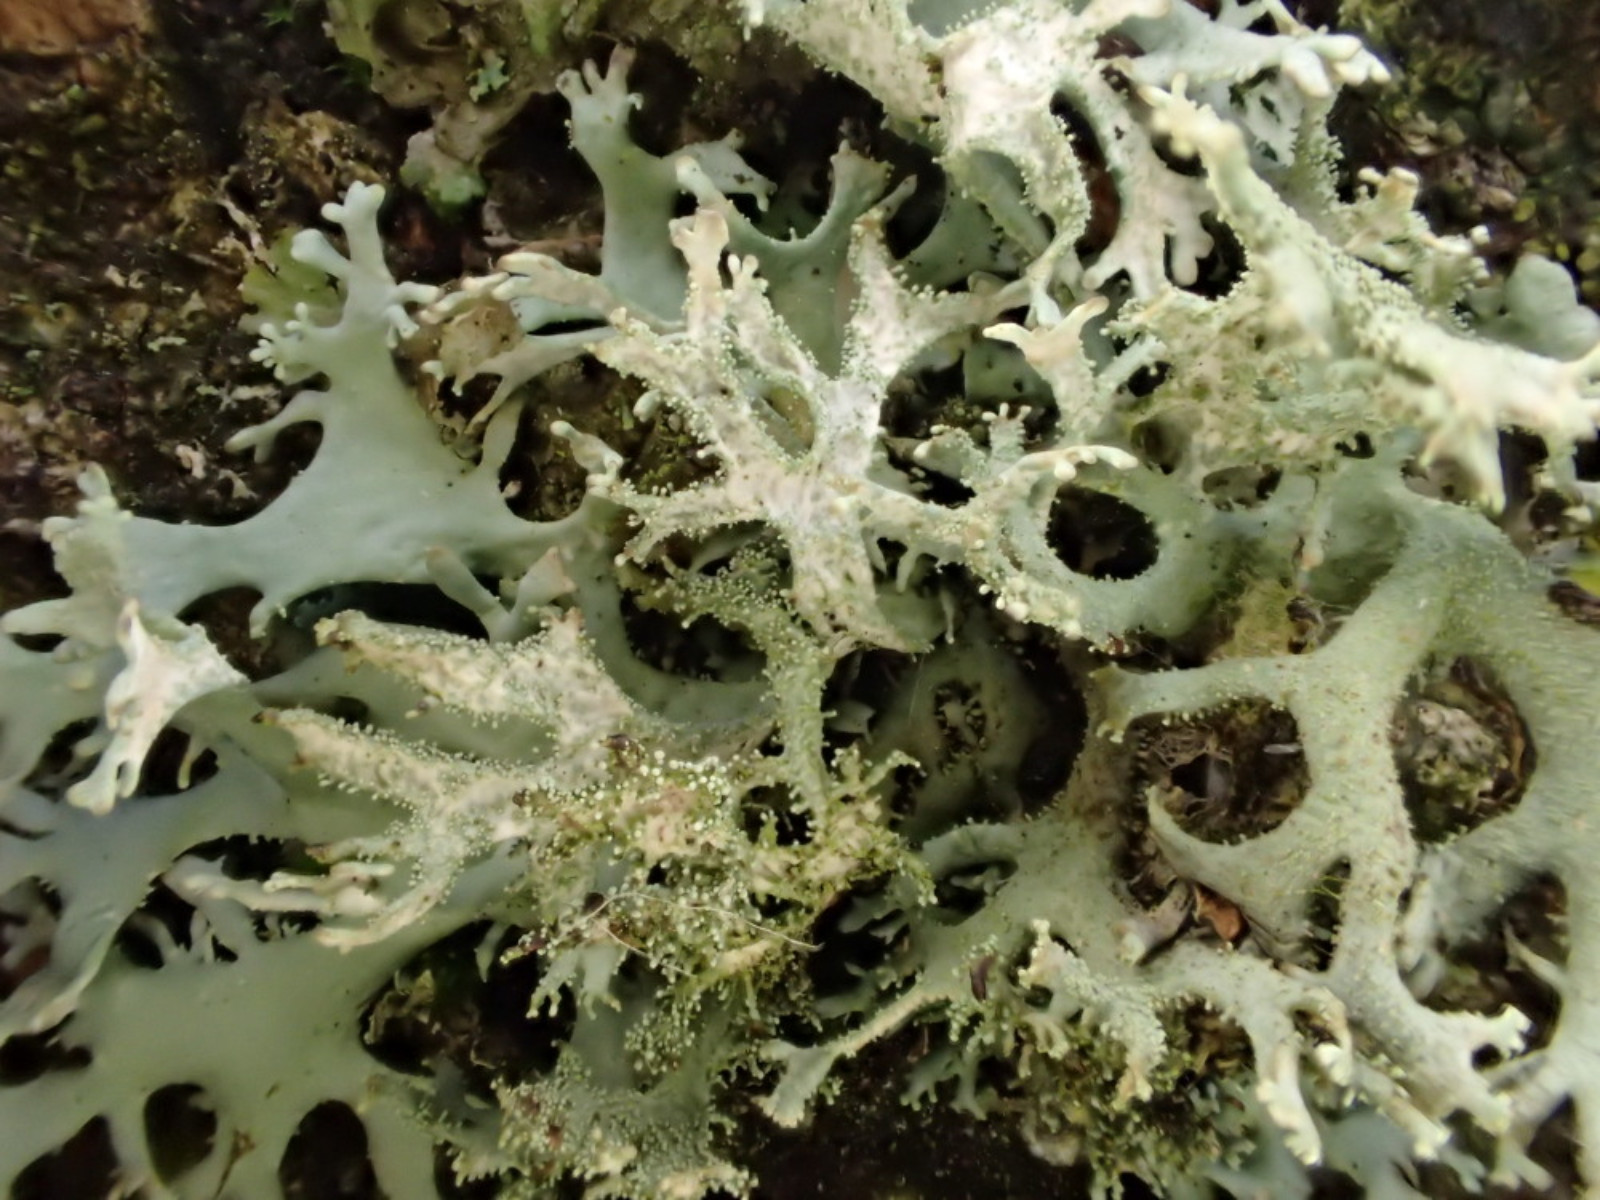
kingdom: Fungi
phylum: Ascomycota
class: Lecanoromycetes
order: Lecanorales
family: Parmeliaceae
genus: Pseudevernia
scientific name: Pseudevernia furfuracea
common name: grå fyrrelav
